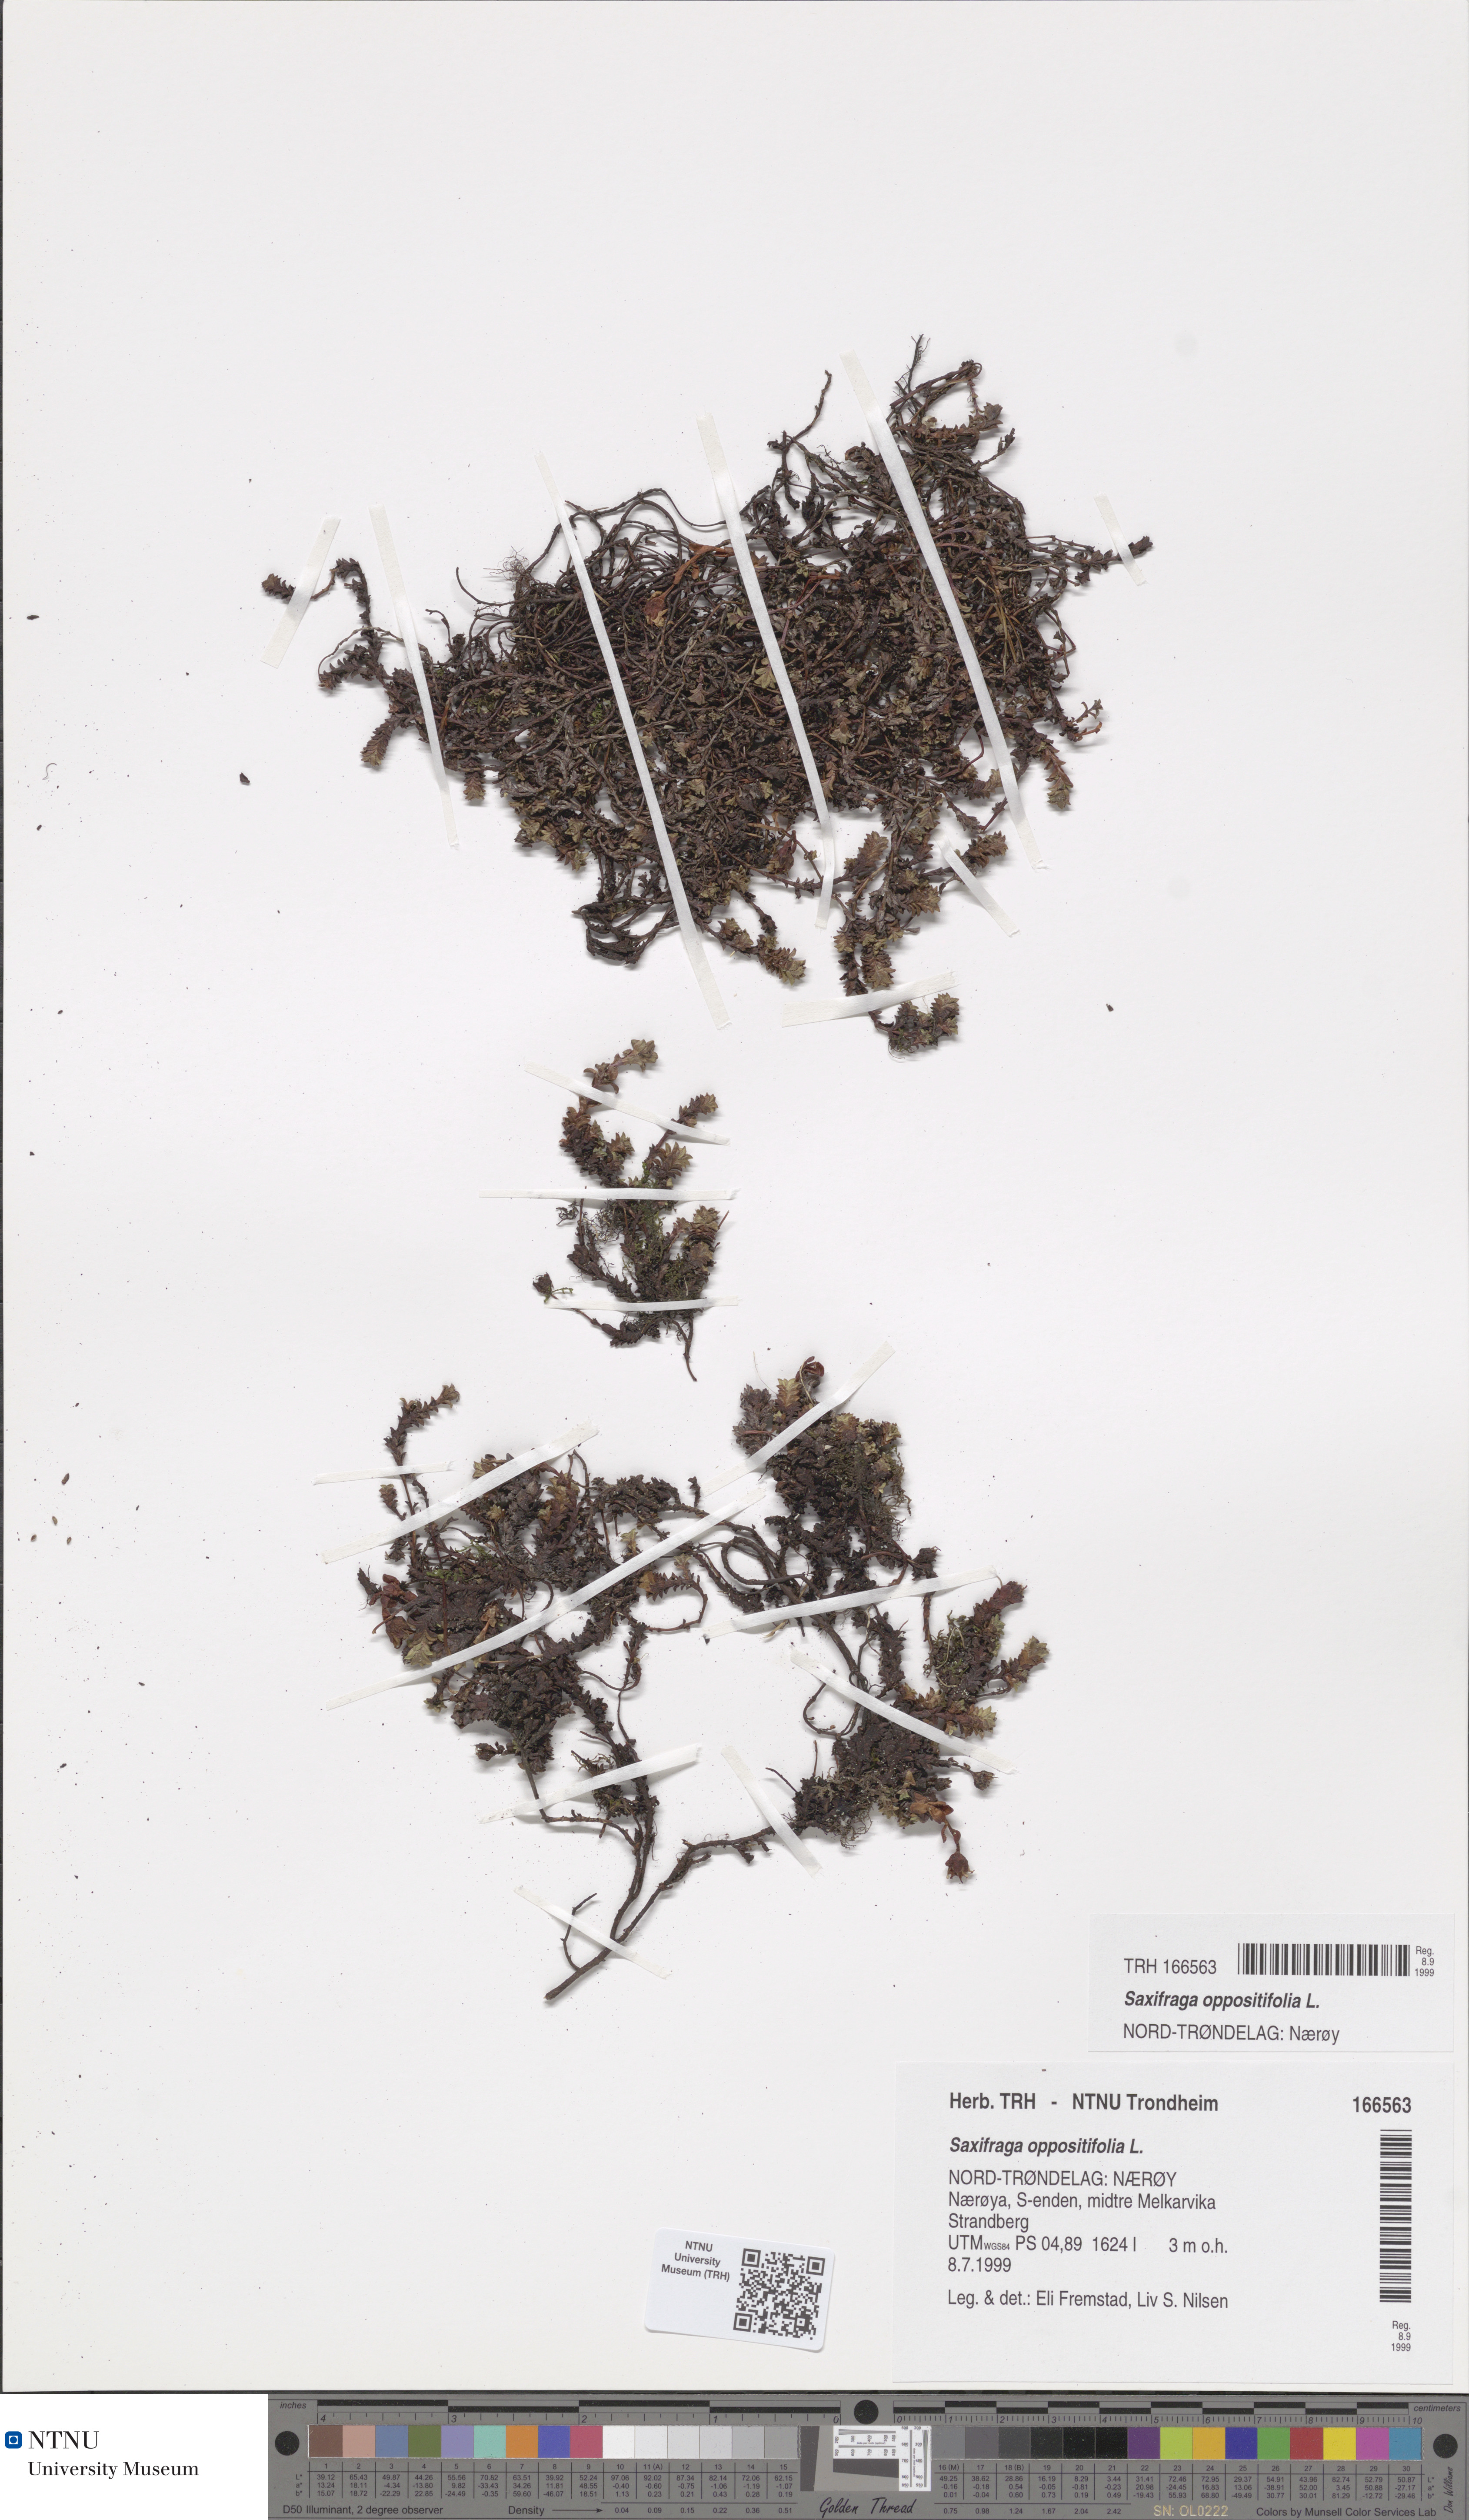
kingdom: Plantae
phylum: Tracheophyta
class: Magnoliopsida
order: Saxifragales
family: Saxifragaceae
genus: Saxifraga
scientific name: Saxifraga oppositifolia
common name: Purple saxifrage
